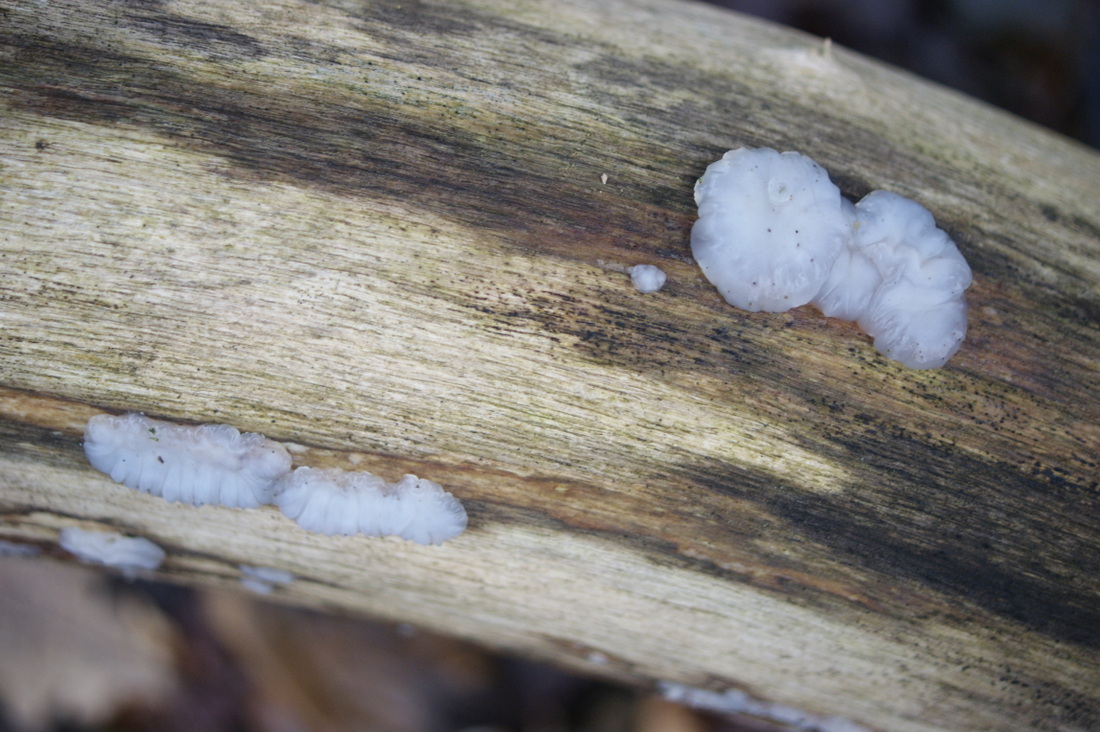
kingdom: Fungi
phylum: Basidiomycota
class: Agaricomycetes
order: Auriculariales
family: Auriculariaceae
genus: Exidia
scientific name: Exidia thuretiana
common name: hvidlig bævretop
